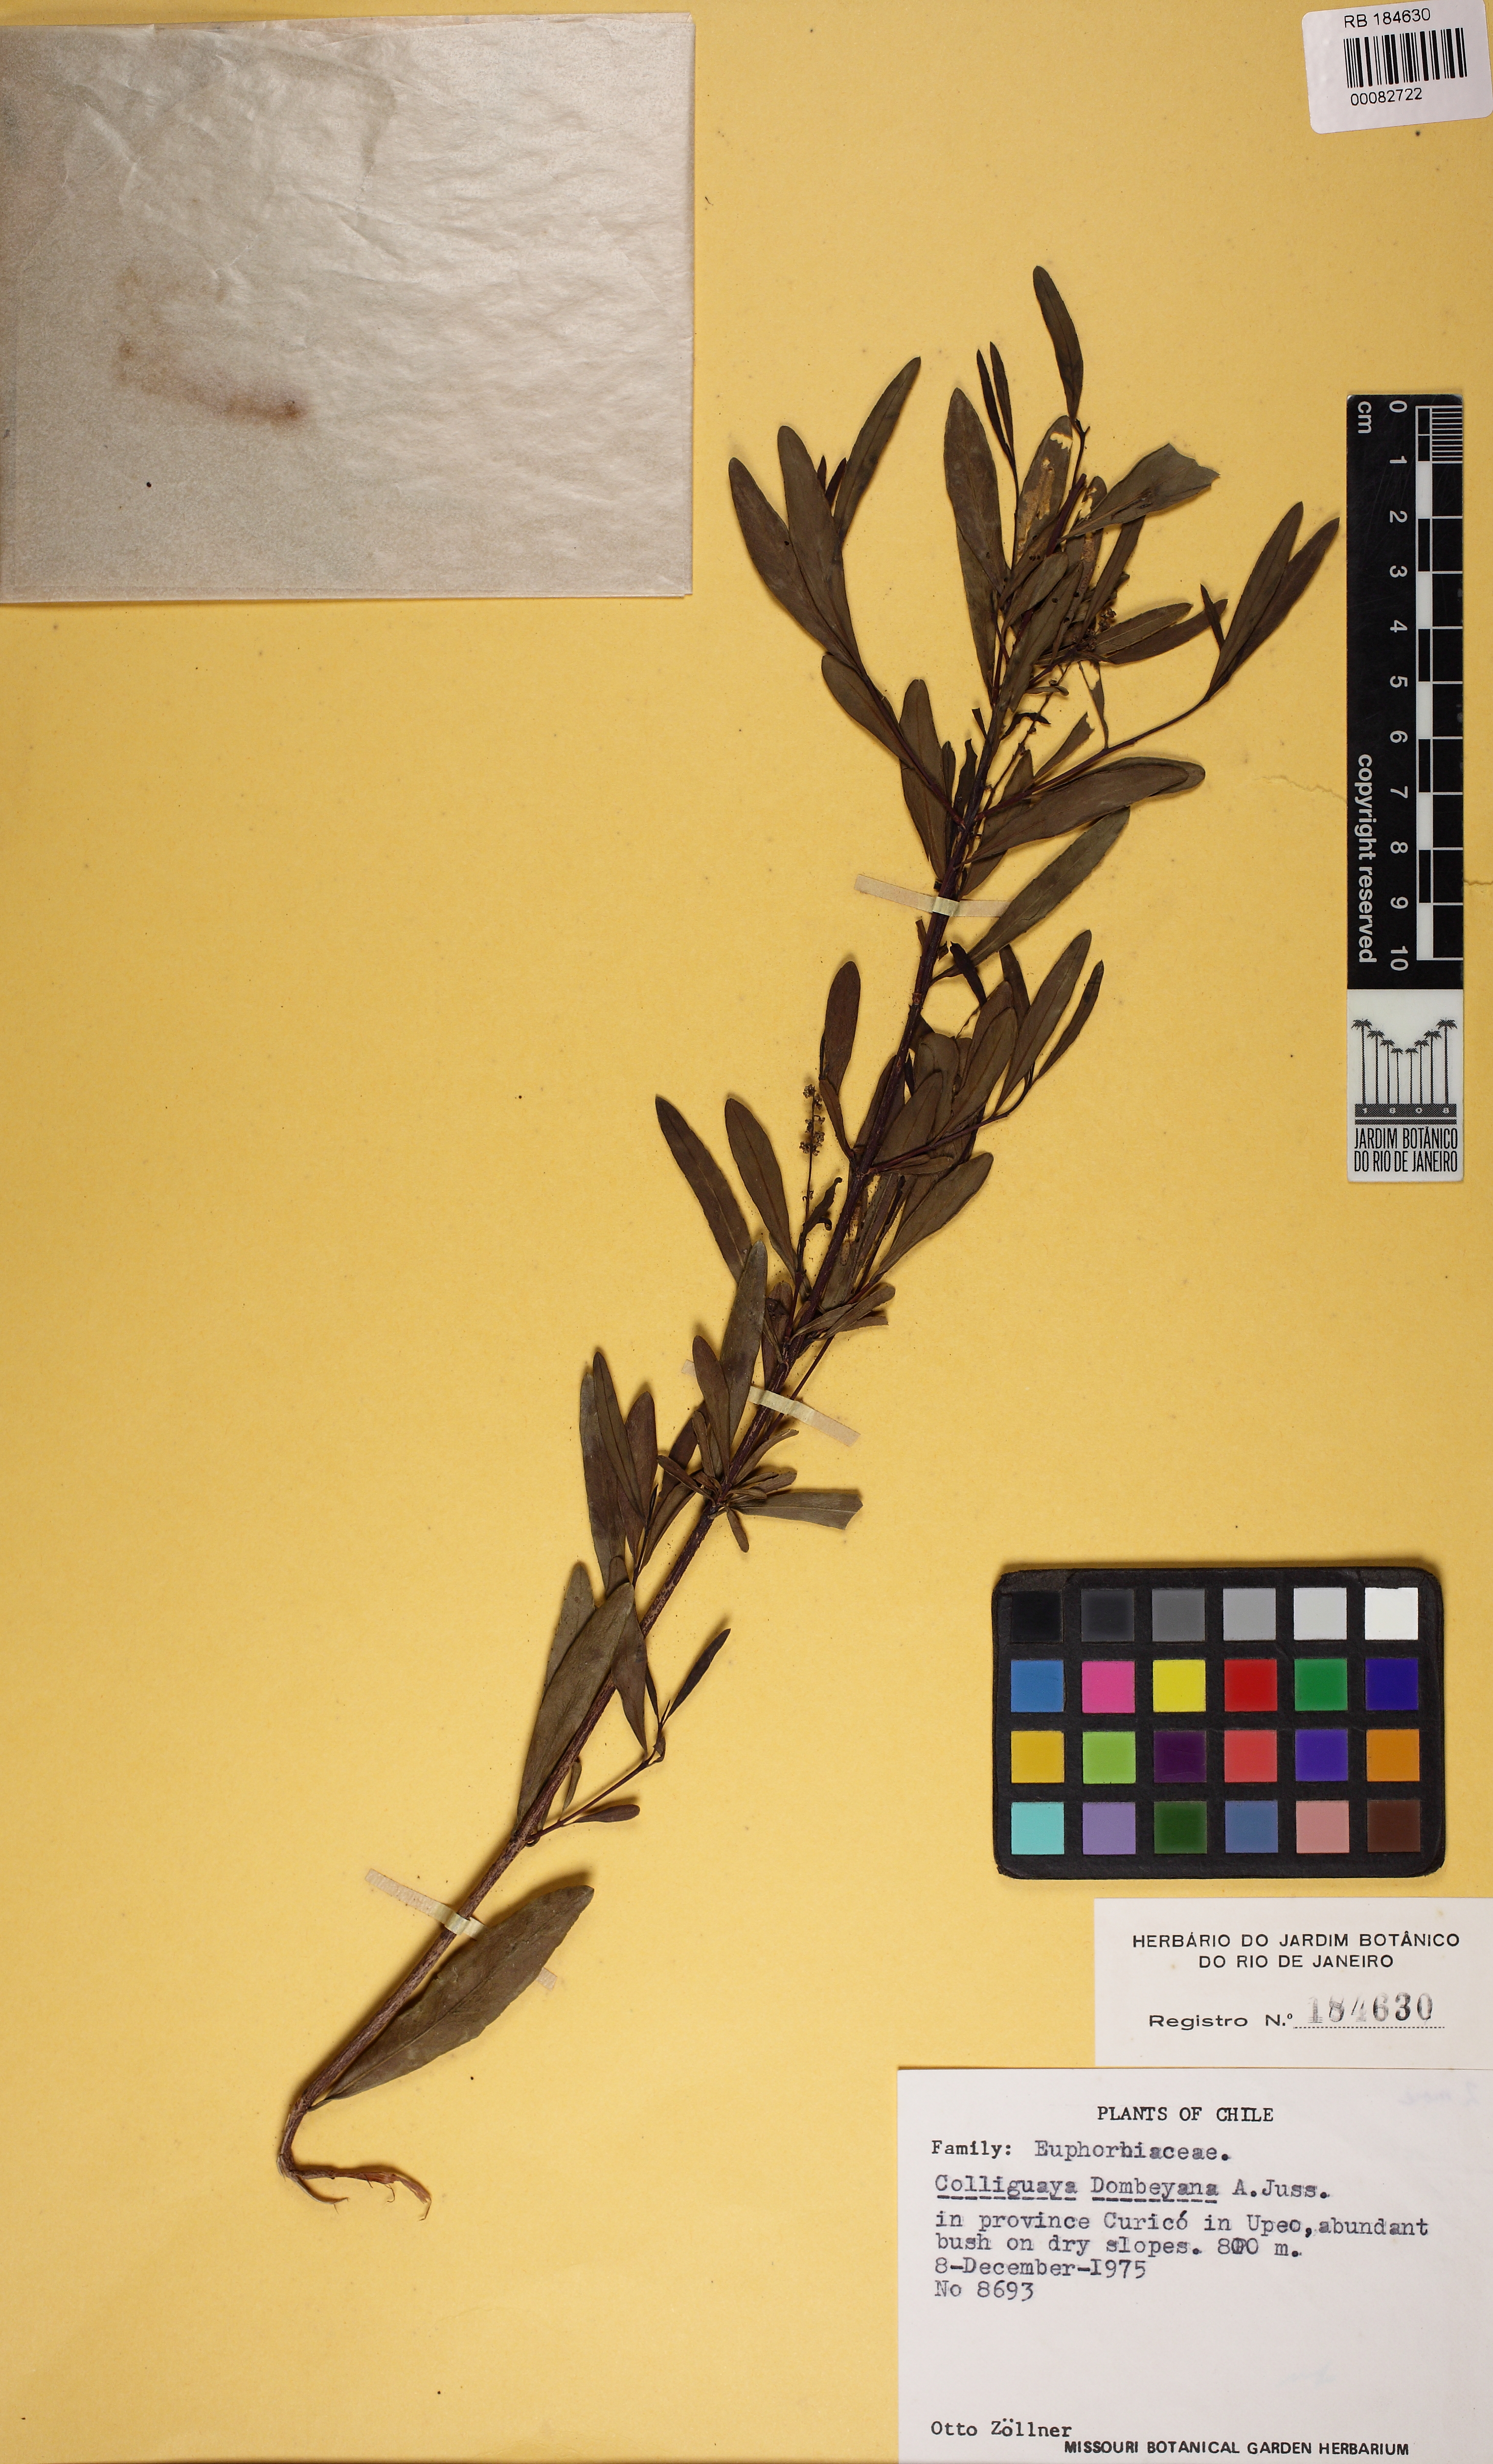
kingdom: Plantae
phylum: Tracheophyta
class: Magnoliopsida
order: Malpighiales
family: Euphorbiaceae
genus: Colliguaja
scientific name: Colliguaja dombeyana
